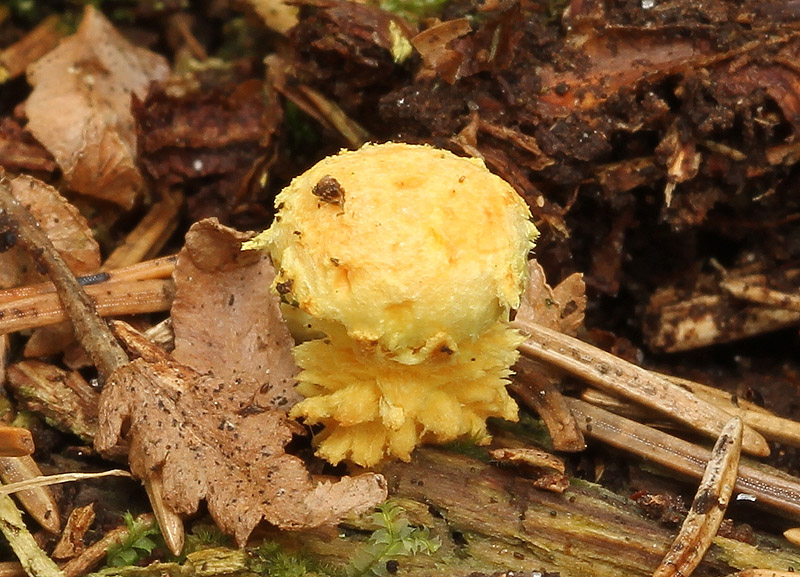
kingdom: Fungi
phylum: Basidiomycota
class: Agaricomycetes
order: Agaricales
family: Strophariaceae
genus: Pholiota
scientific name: Pholiota flammans
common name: flamme-skælhat
